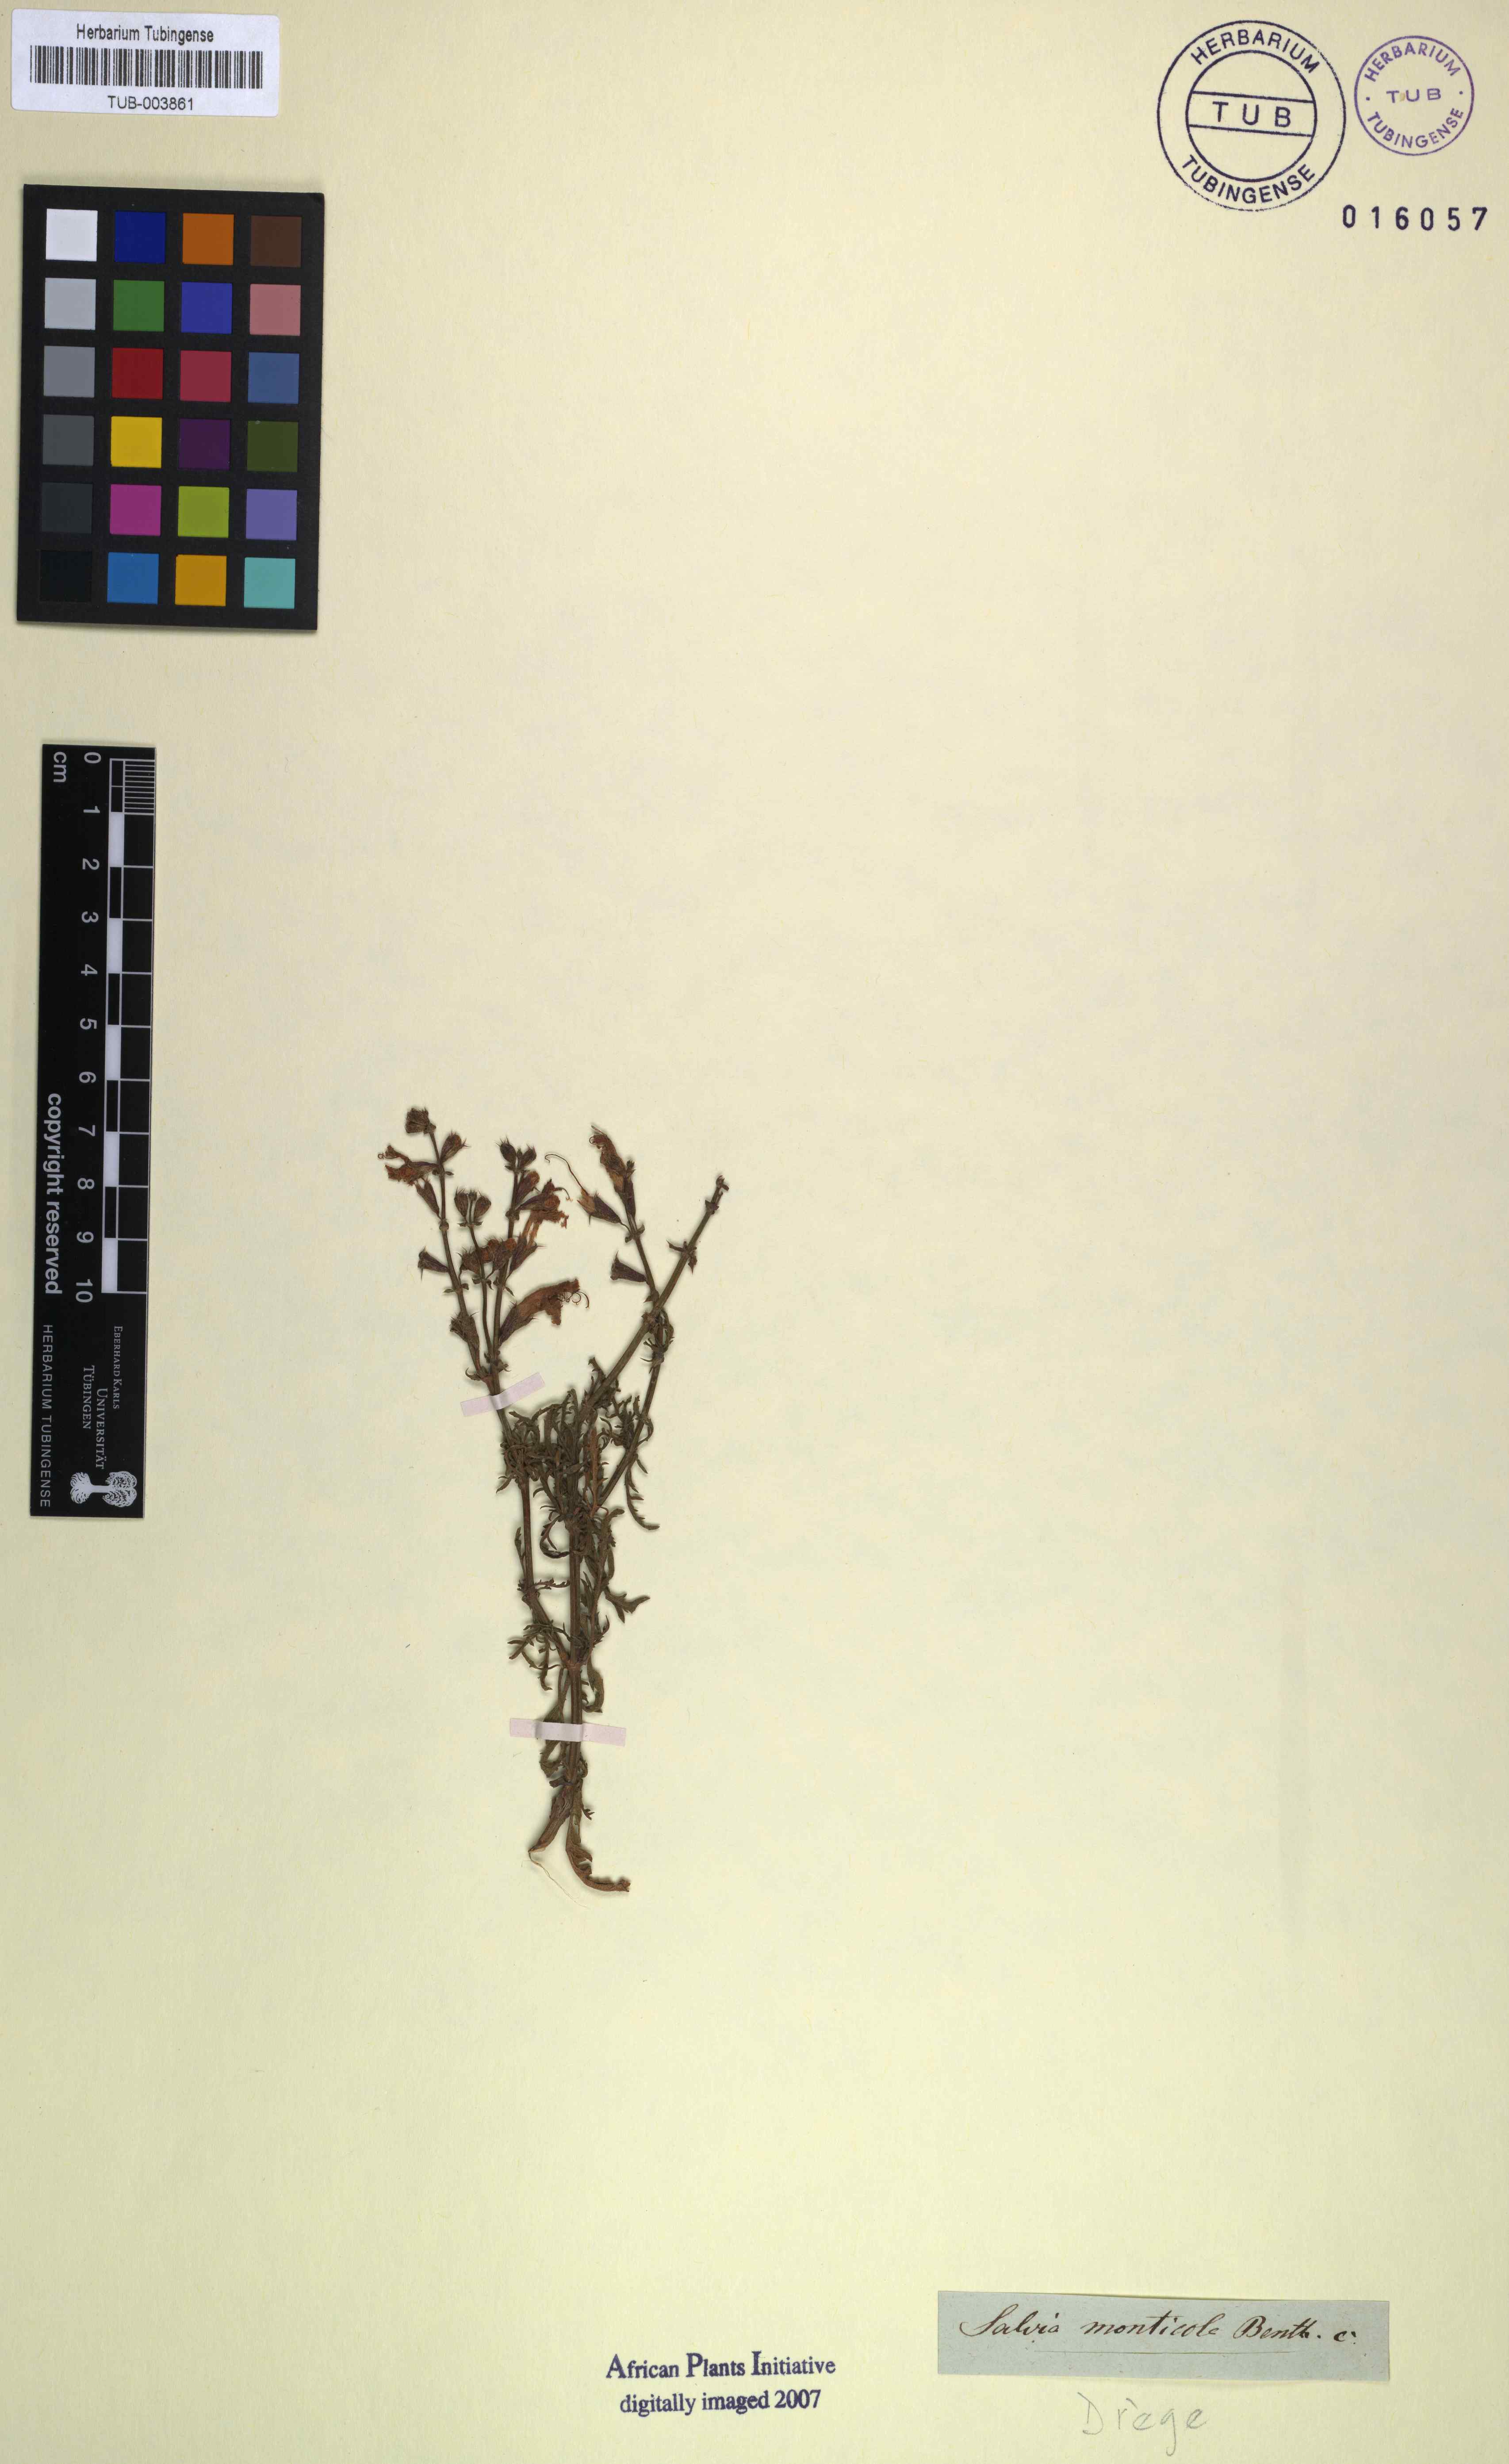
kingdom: Plantae
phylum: Tracheophyta
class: Magnoliopsida
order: Lamiales
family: Lamiaceae
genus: Salvia
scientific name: Salvia runcinata
